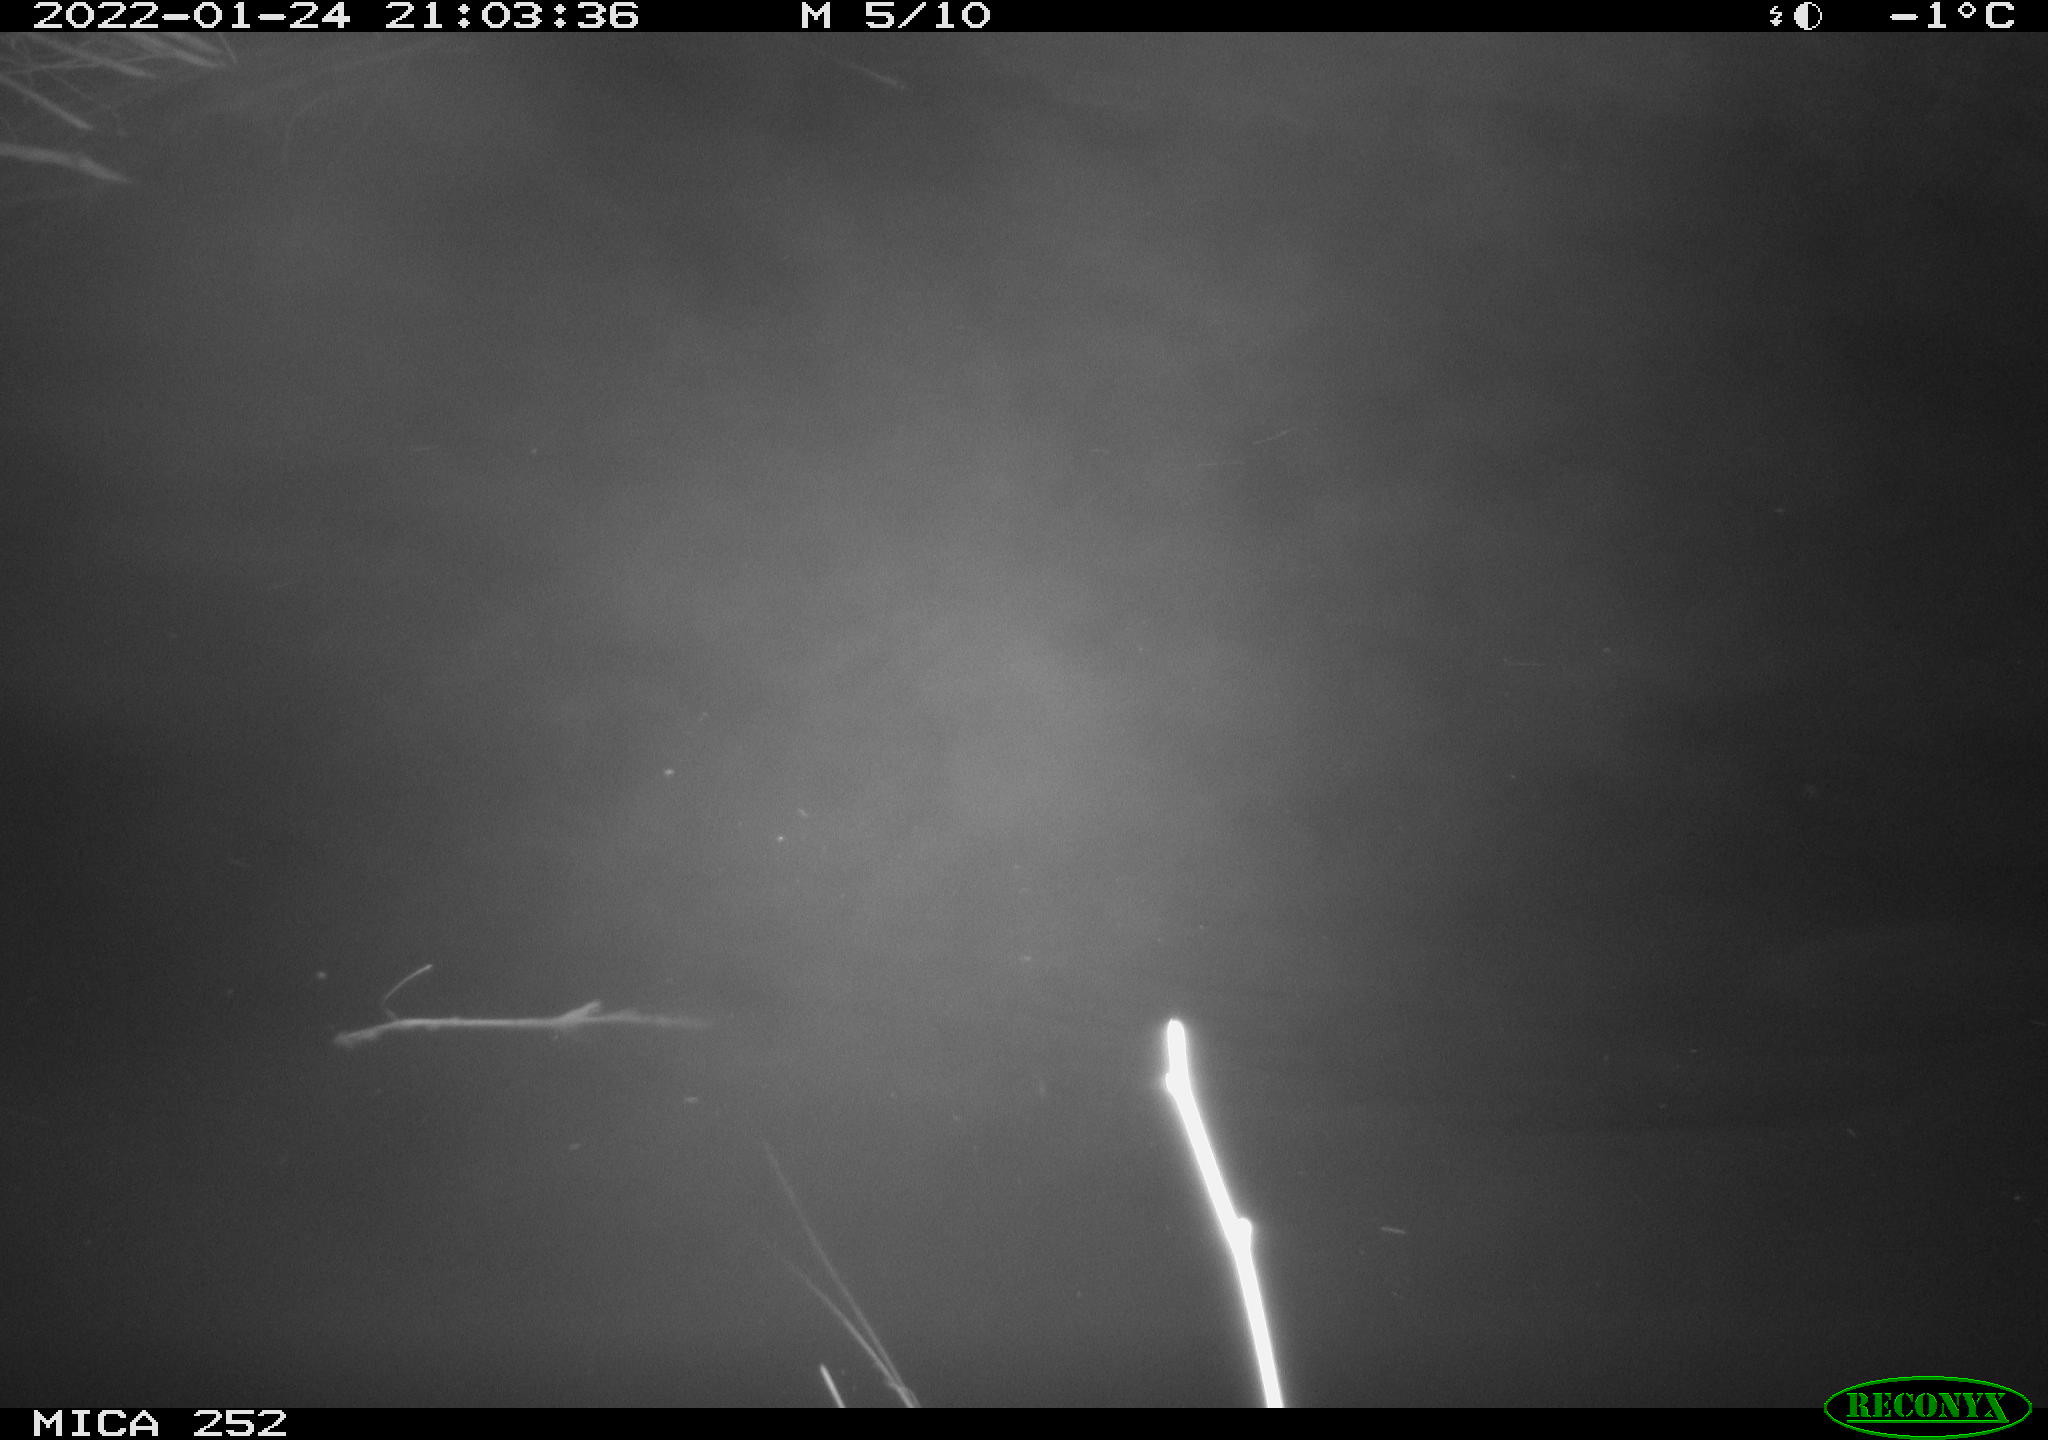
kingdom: Animalia
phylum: Chordata
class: Mammalia
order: Rodentia
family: Castoridae
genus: Castor
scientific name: Castor fiber
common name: Eurasian beaver
